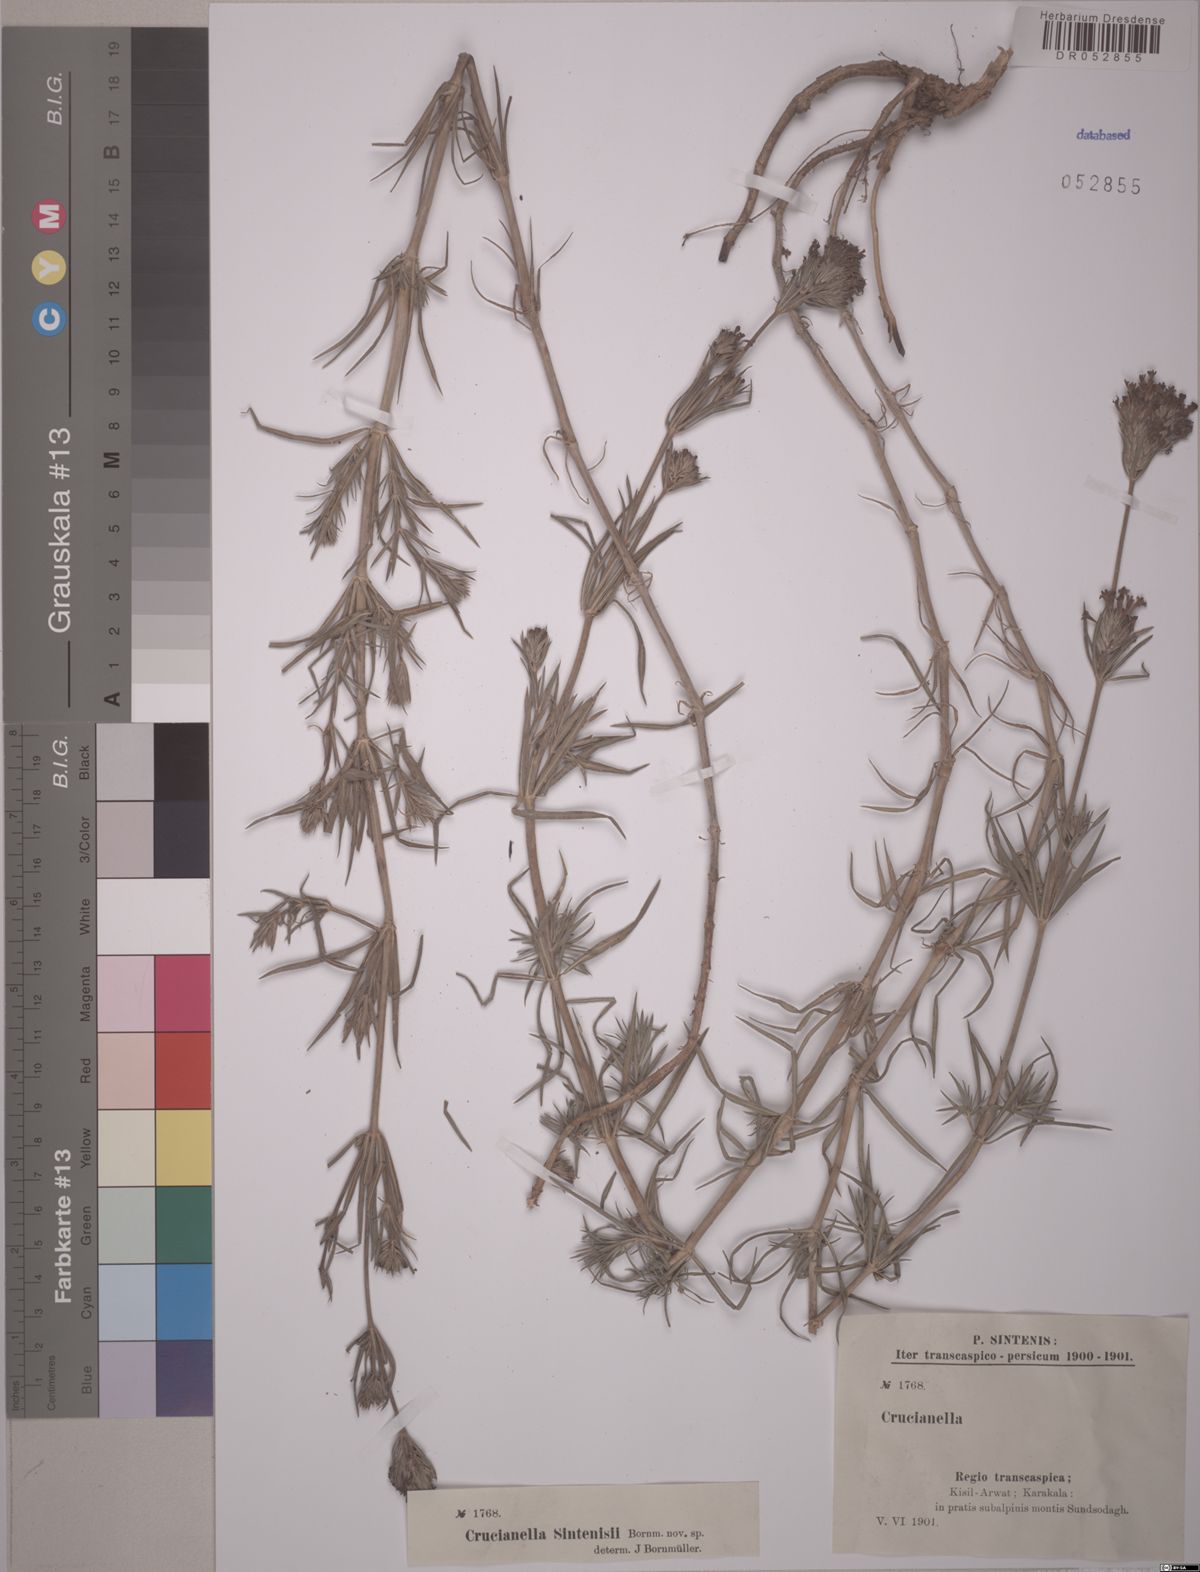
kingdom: Plantae
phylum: Tracheophyta
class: Magnoliopsida
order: Gentianales
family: Rubiaceae
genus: Crucianella
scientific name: Crucianella sintenisii
